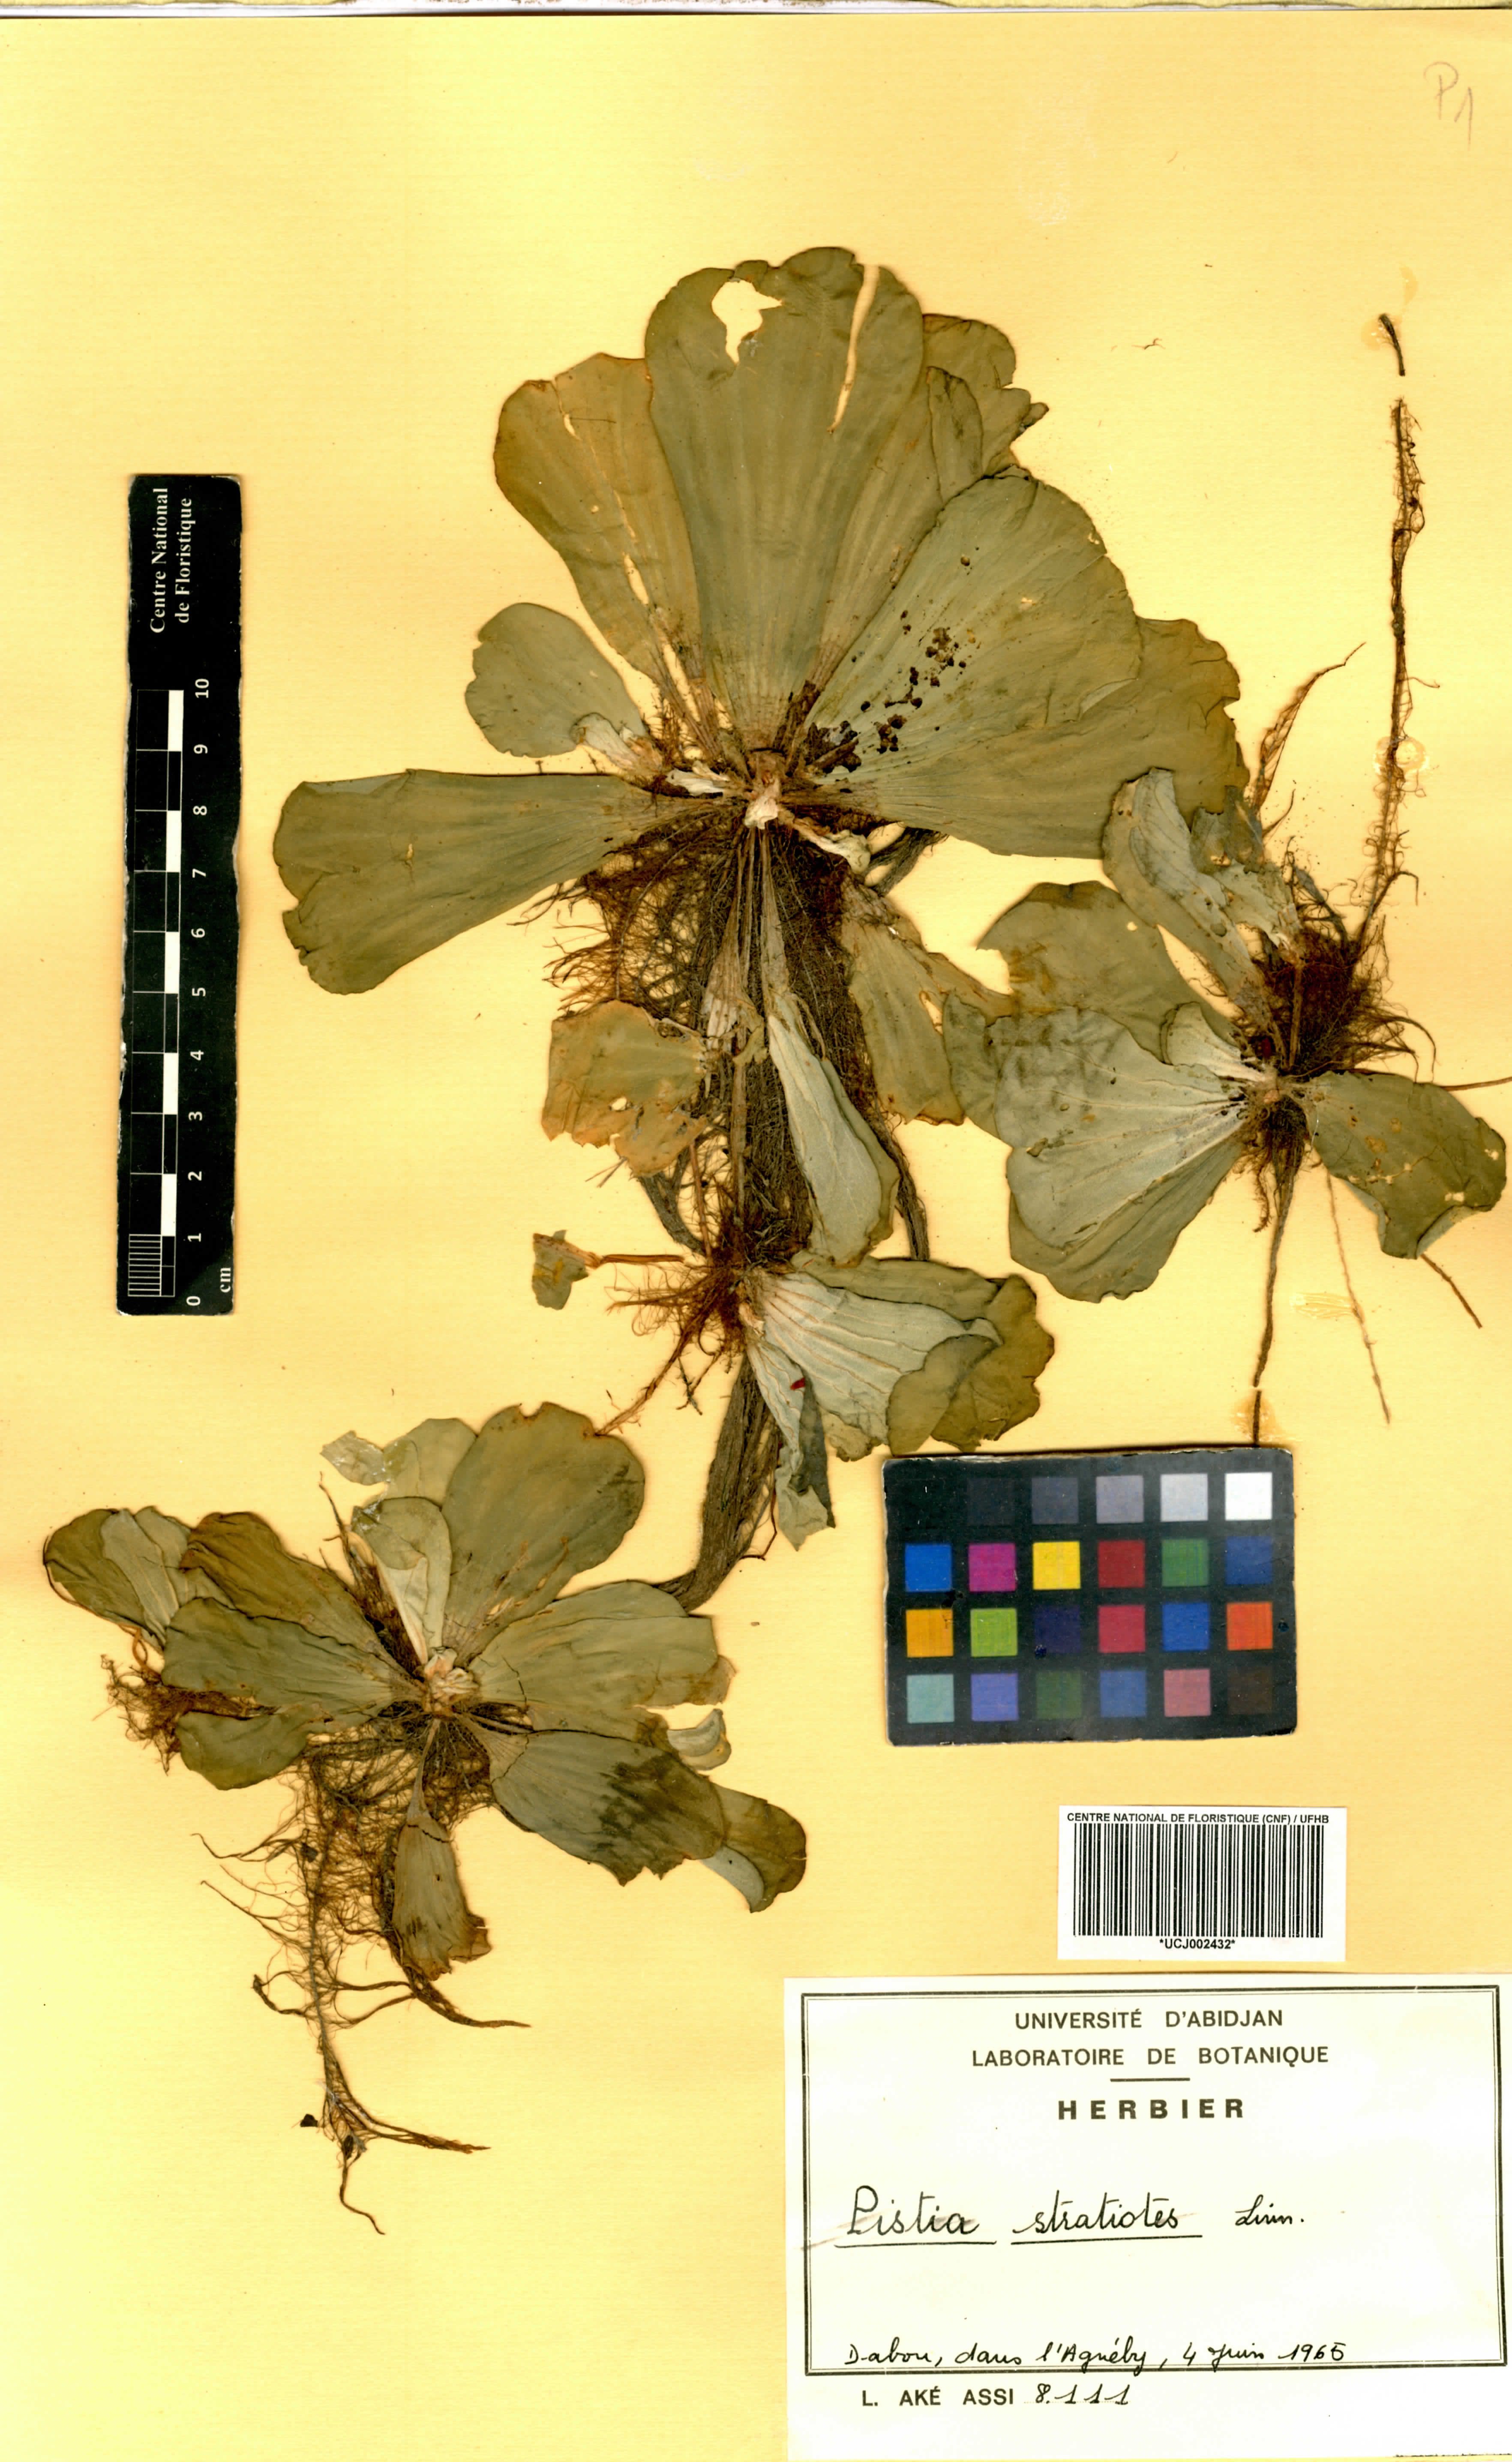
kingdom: Plantae
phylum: Tracheophyta
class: Liliopsida
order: Alismatales
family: Araceae
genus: Pistia
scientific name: Pistia stratiotes
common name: Water lettuce
